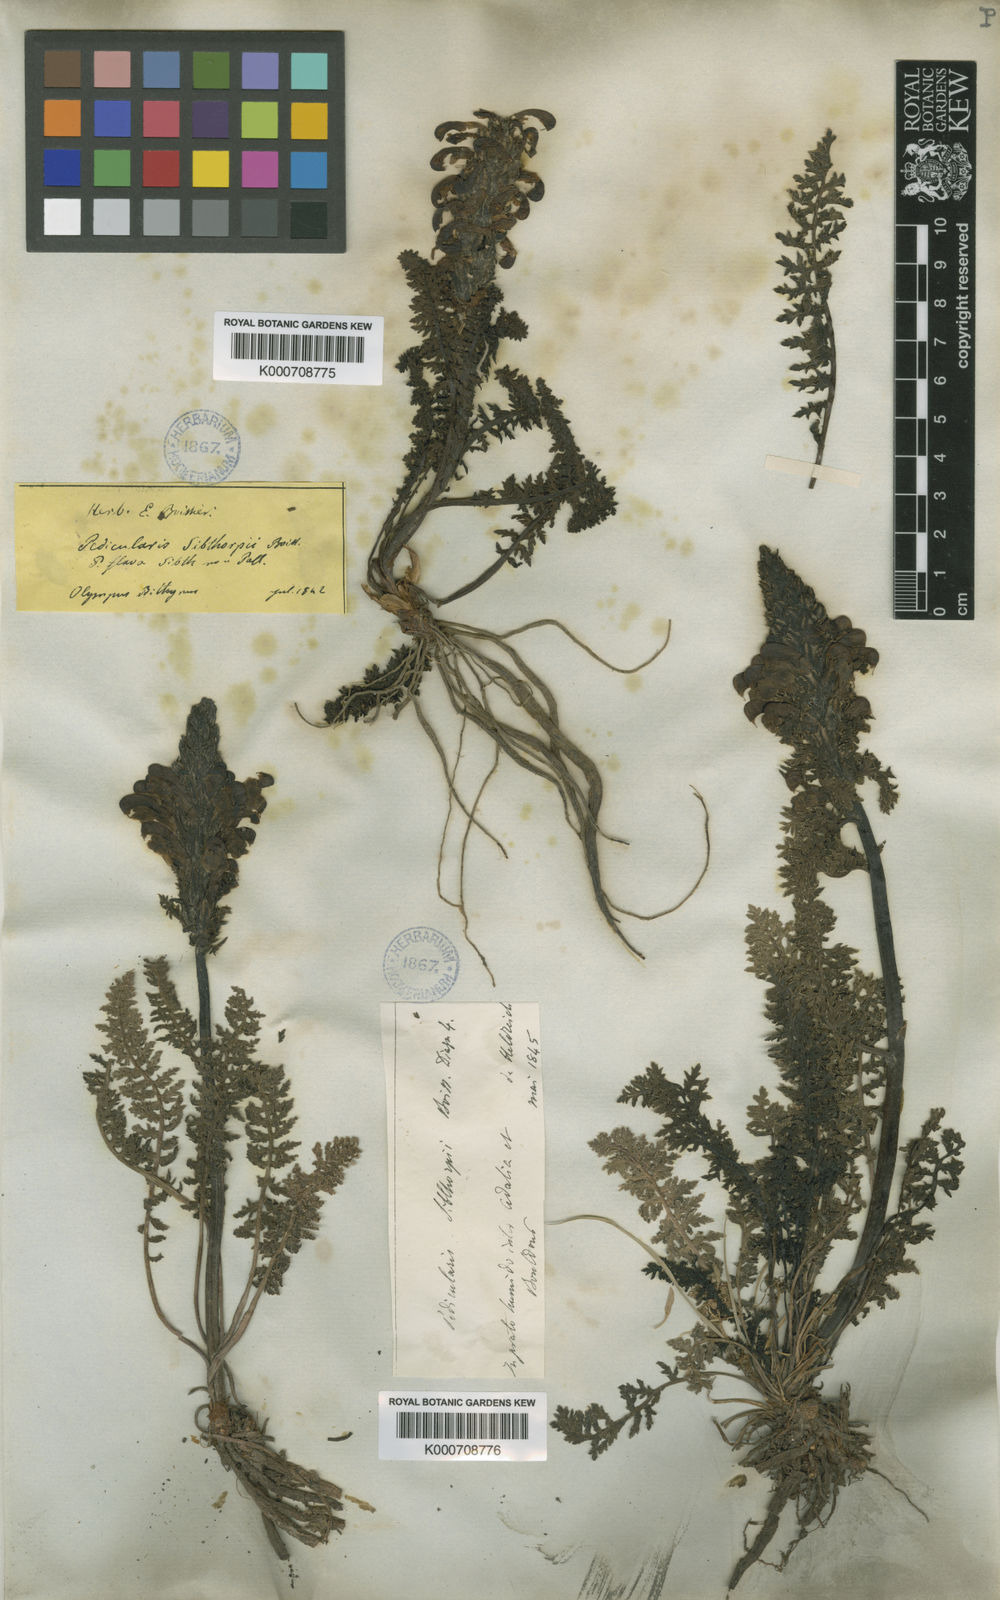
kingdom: Plantae
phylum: Tracheophyta
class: Magnoliopsida
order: Lamiales
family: Orobanchaceae
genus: Pedicularis
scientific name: Pedicularis sibthorpii
